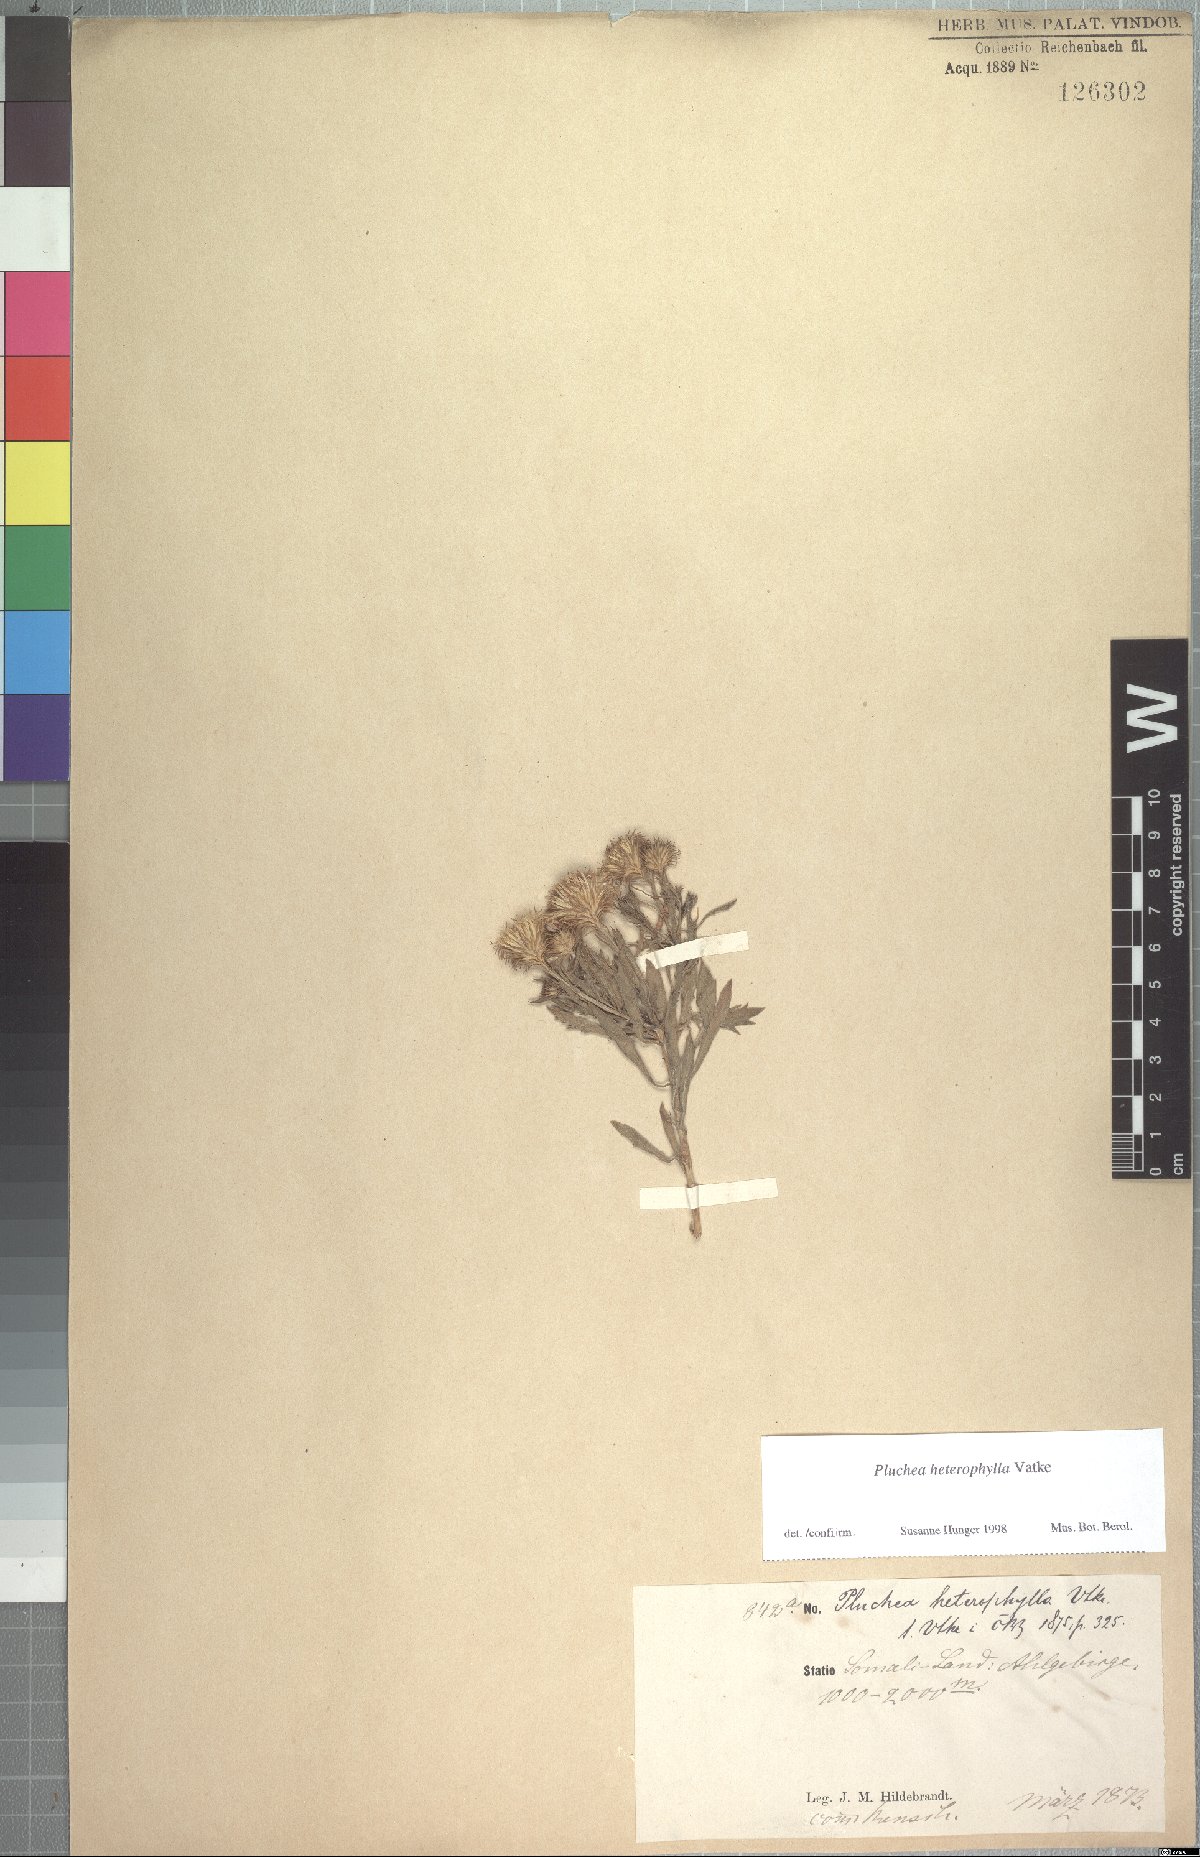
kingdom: Plantae
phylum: Tracheophyta
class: Magnoliopsida
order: Asterales
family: Asteraceae
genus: Pluchea
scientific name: Pluchea heterophylla
